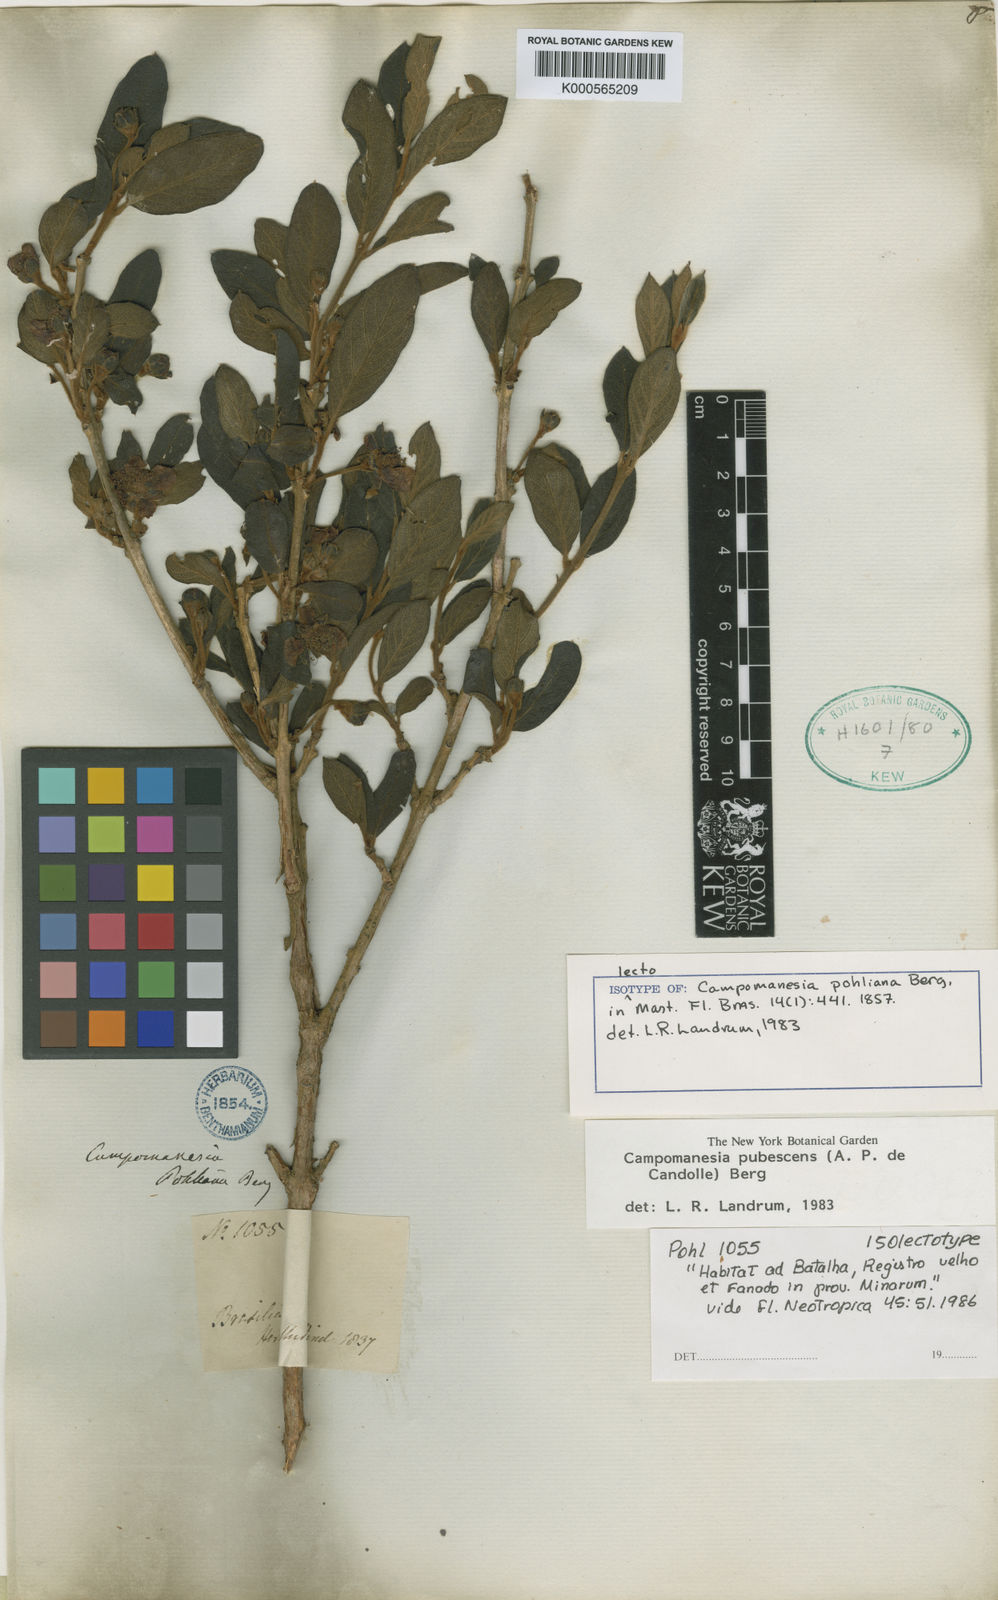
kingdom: Plantae
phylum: Tracheophyta
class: Magnoliopsida
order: Myrtales
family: Myrtaceae
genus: Campomanesia
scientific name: Campomanesia pubescens
